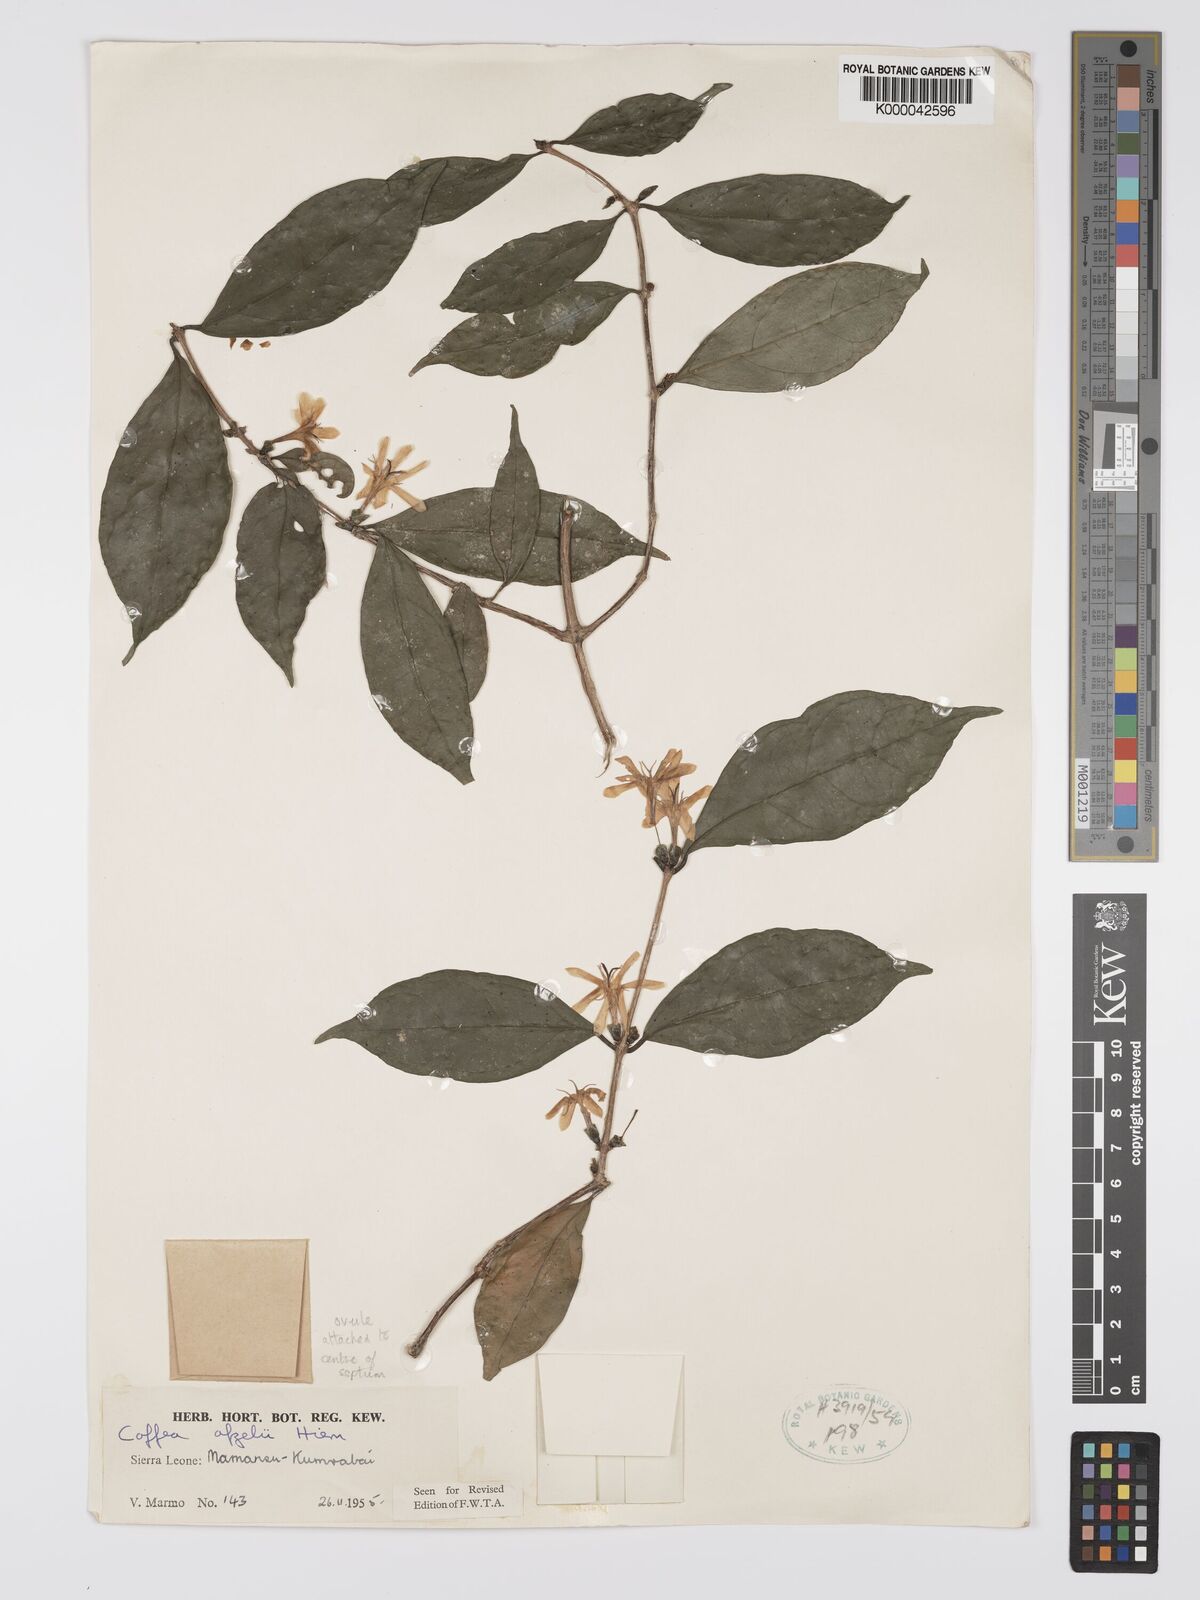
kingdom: Plantae
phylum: Tracheophyta
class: Magnoliopsida
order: Gentianales
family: Rubiaceae
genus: Argocoffeopsis
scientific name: Argocoffeopsis afzelii
